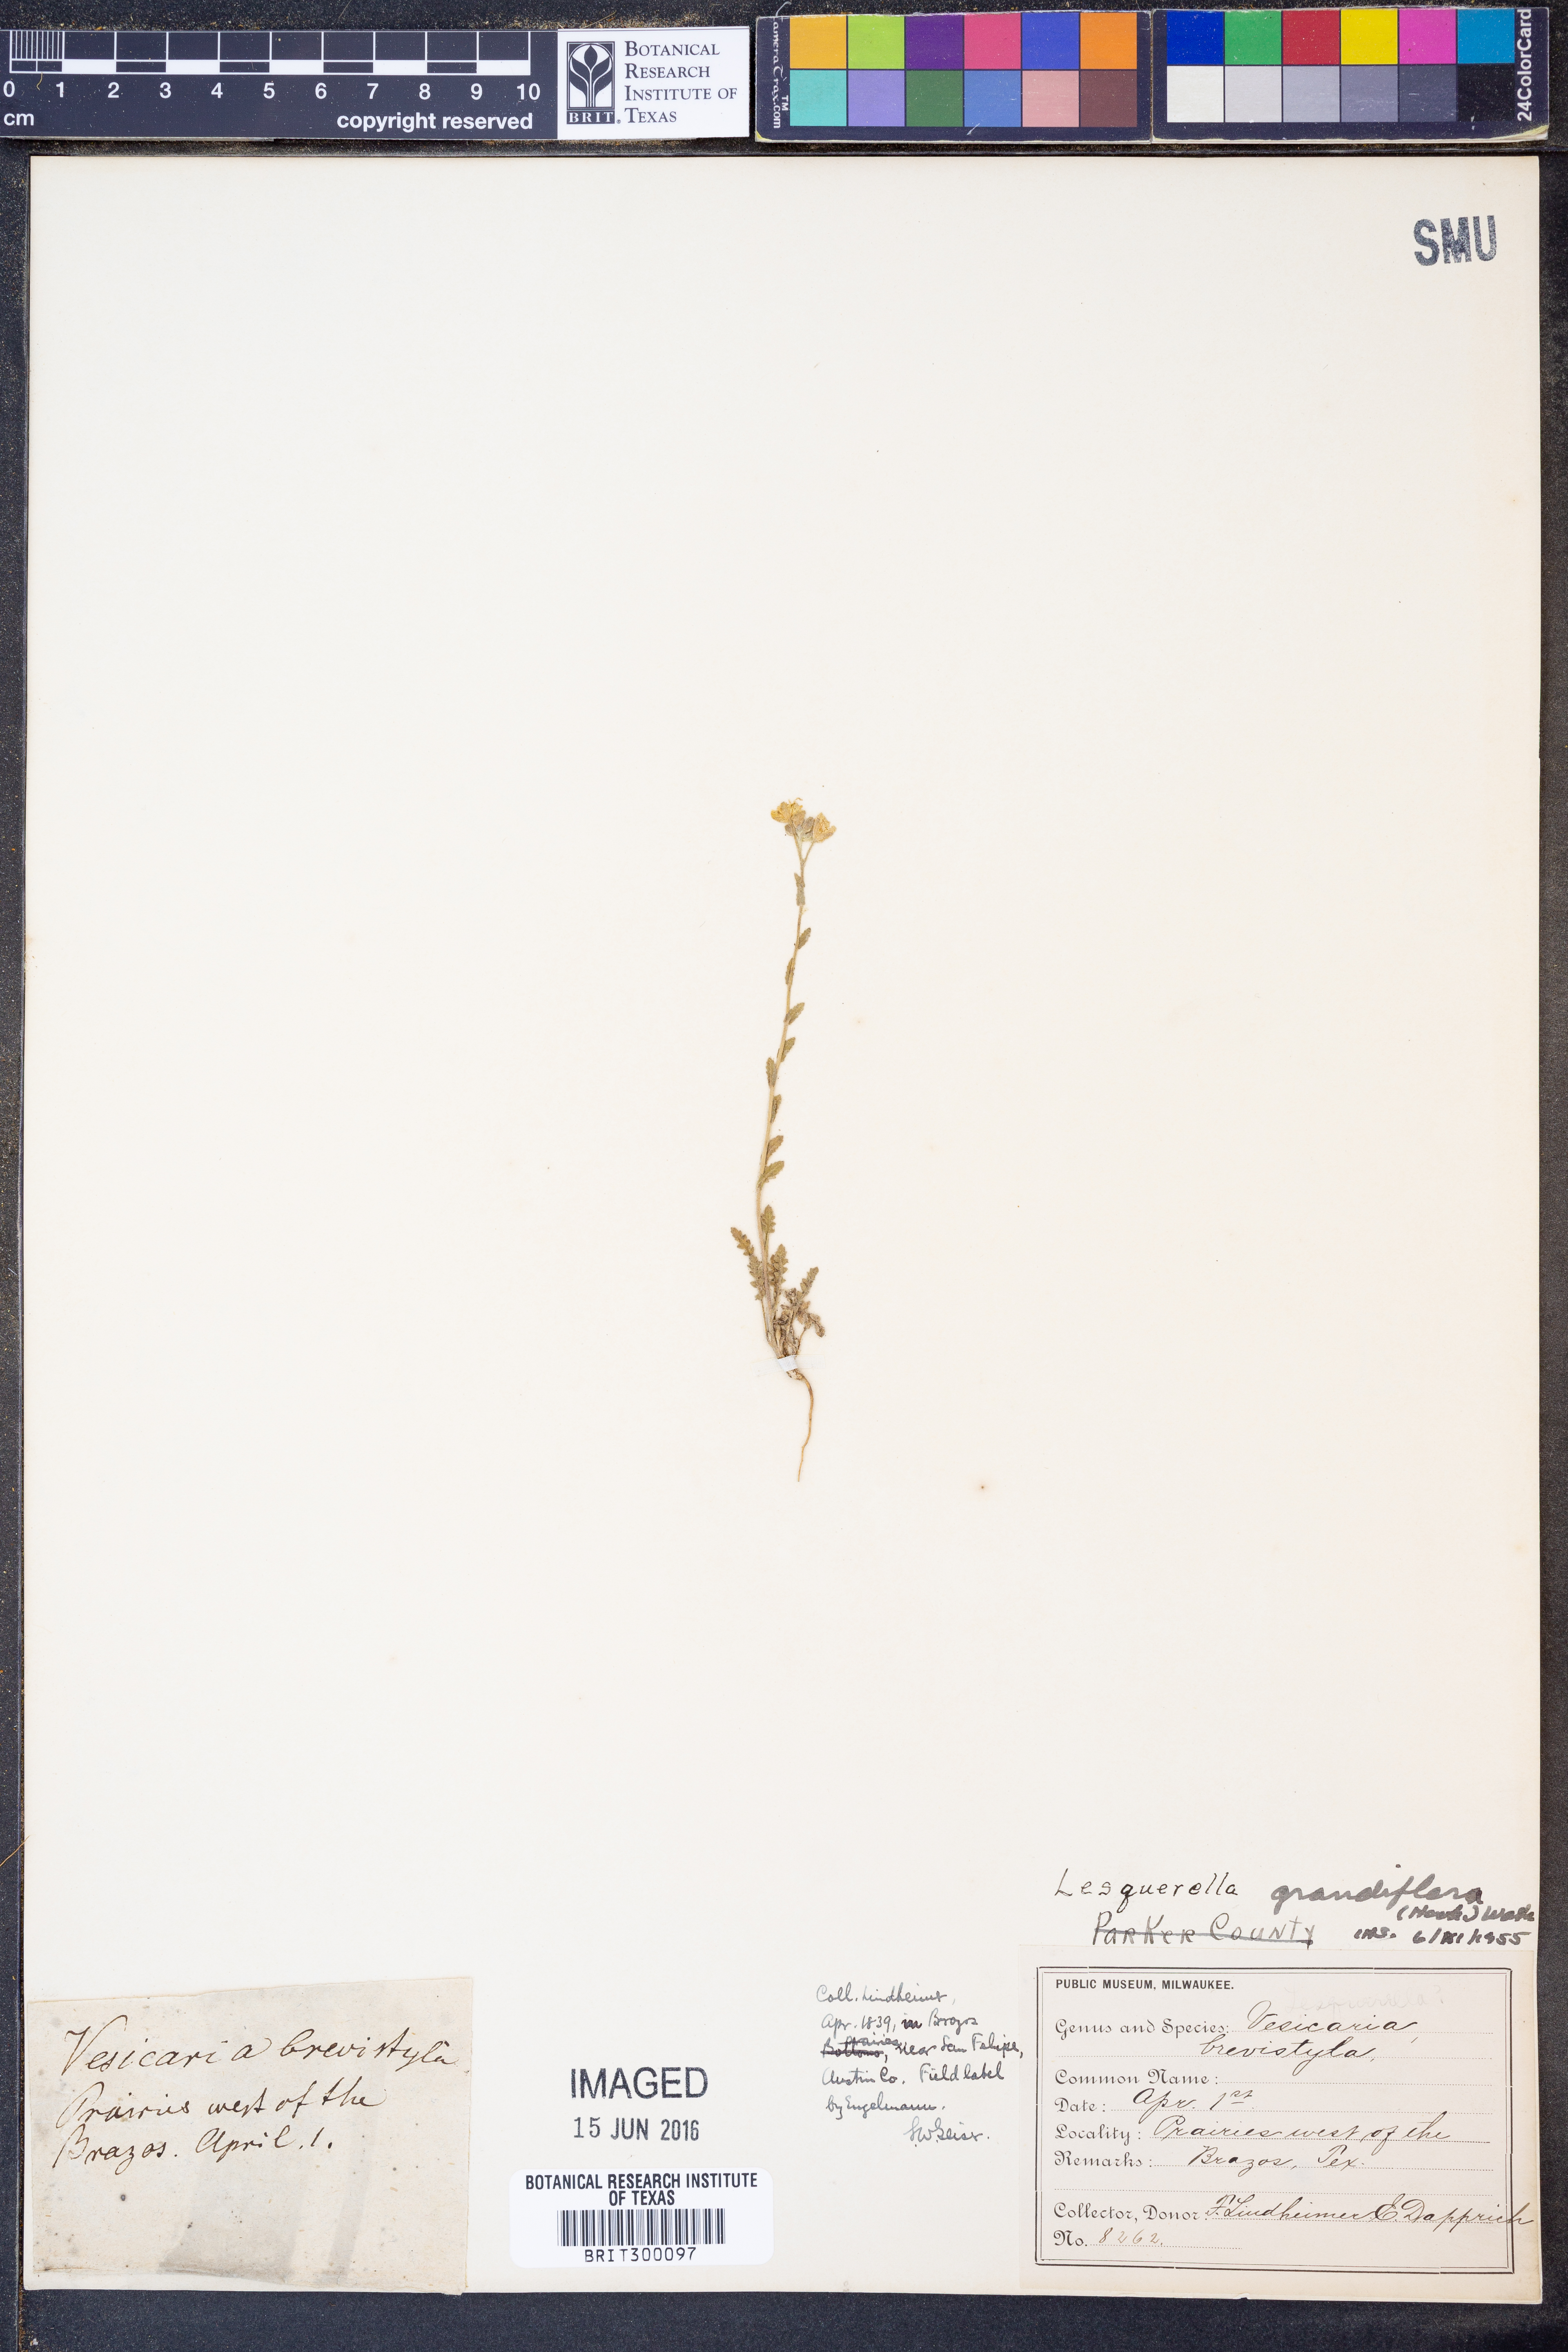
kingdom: Plantae
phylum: Tracheophyta
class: Magnoliopsida
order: Brassicales
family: Brassicaceae
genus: Paysonia
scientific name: Paysonia grandiflora
